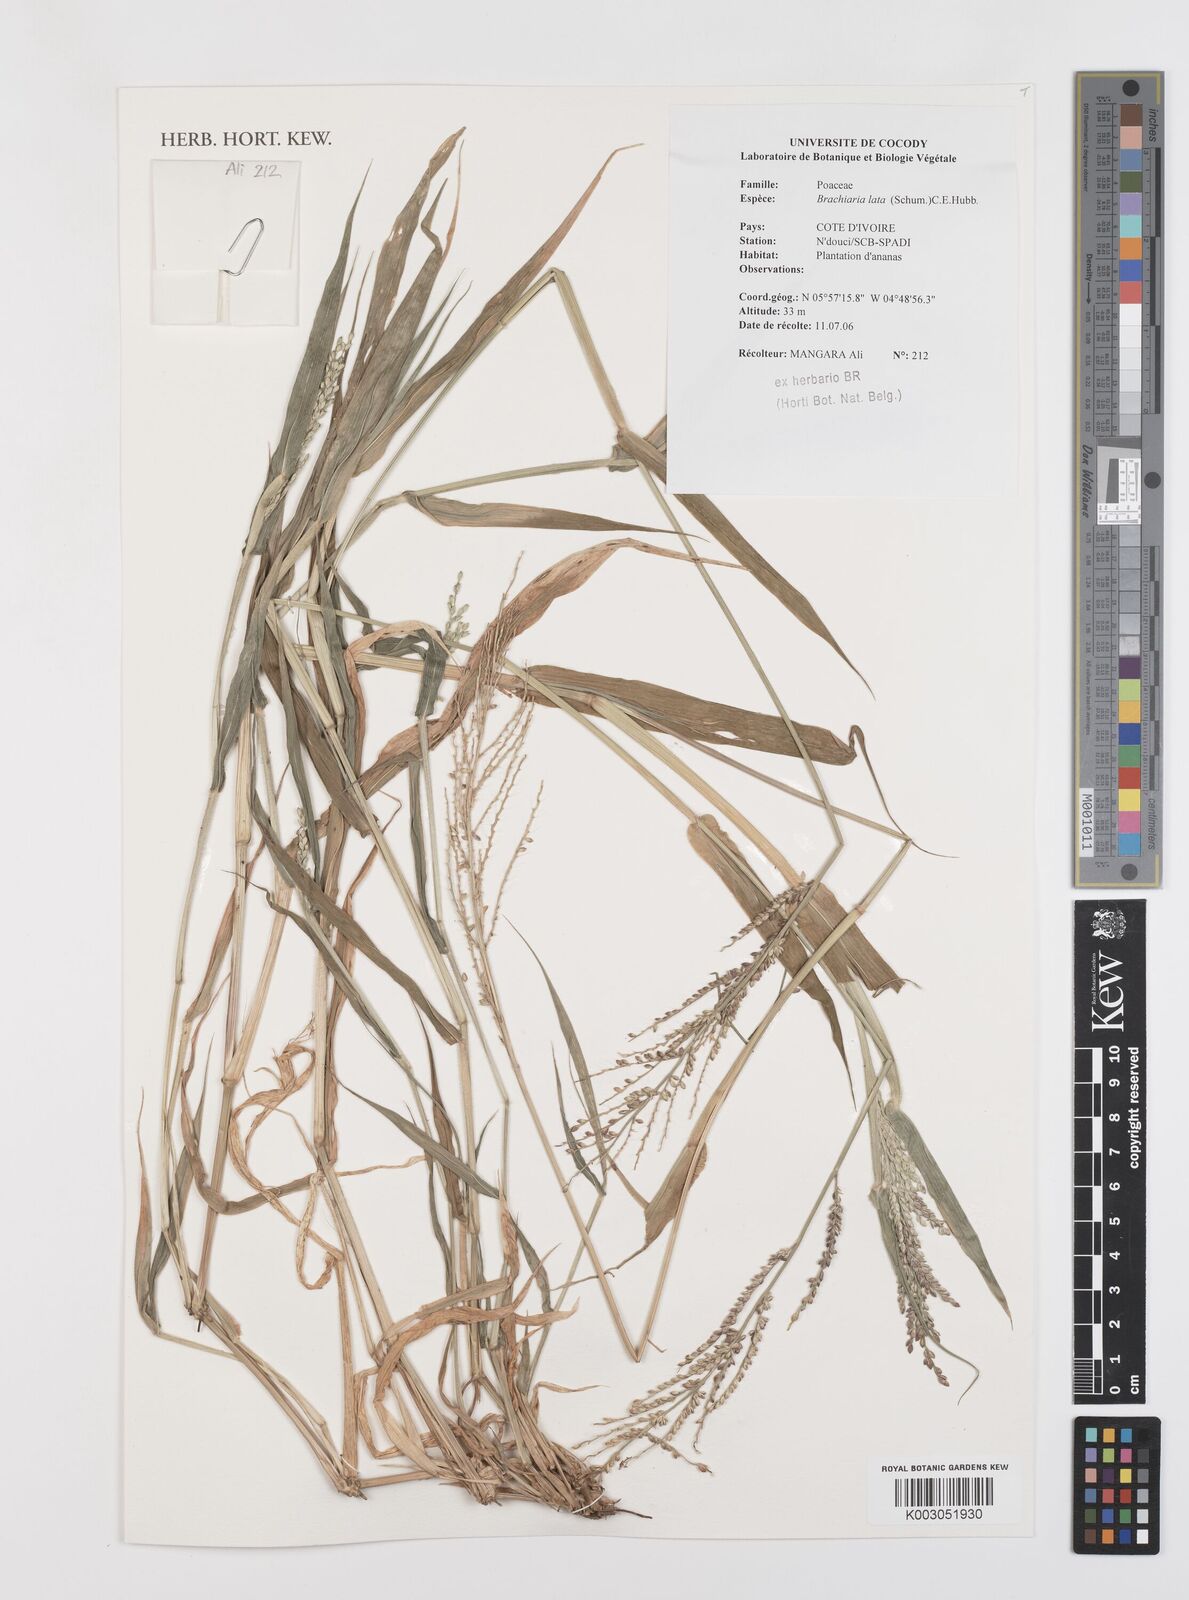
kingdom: Plantae
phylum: Tracheophyta
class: Liliopsida
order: Poales
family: Poaceae
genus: Urochloa
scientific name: Urochloa lata
